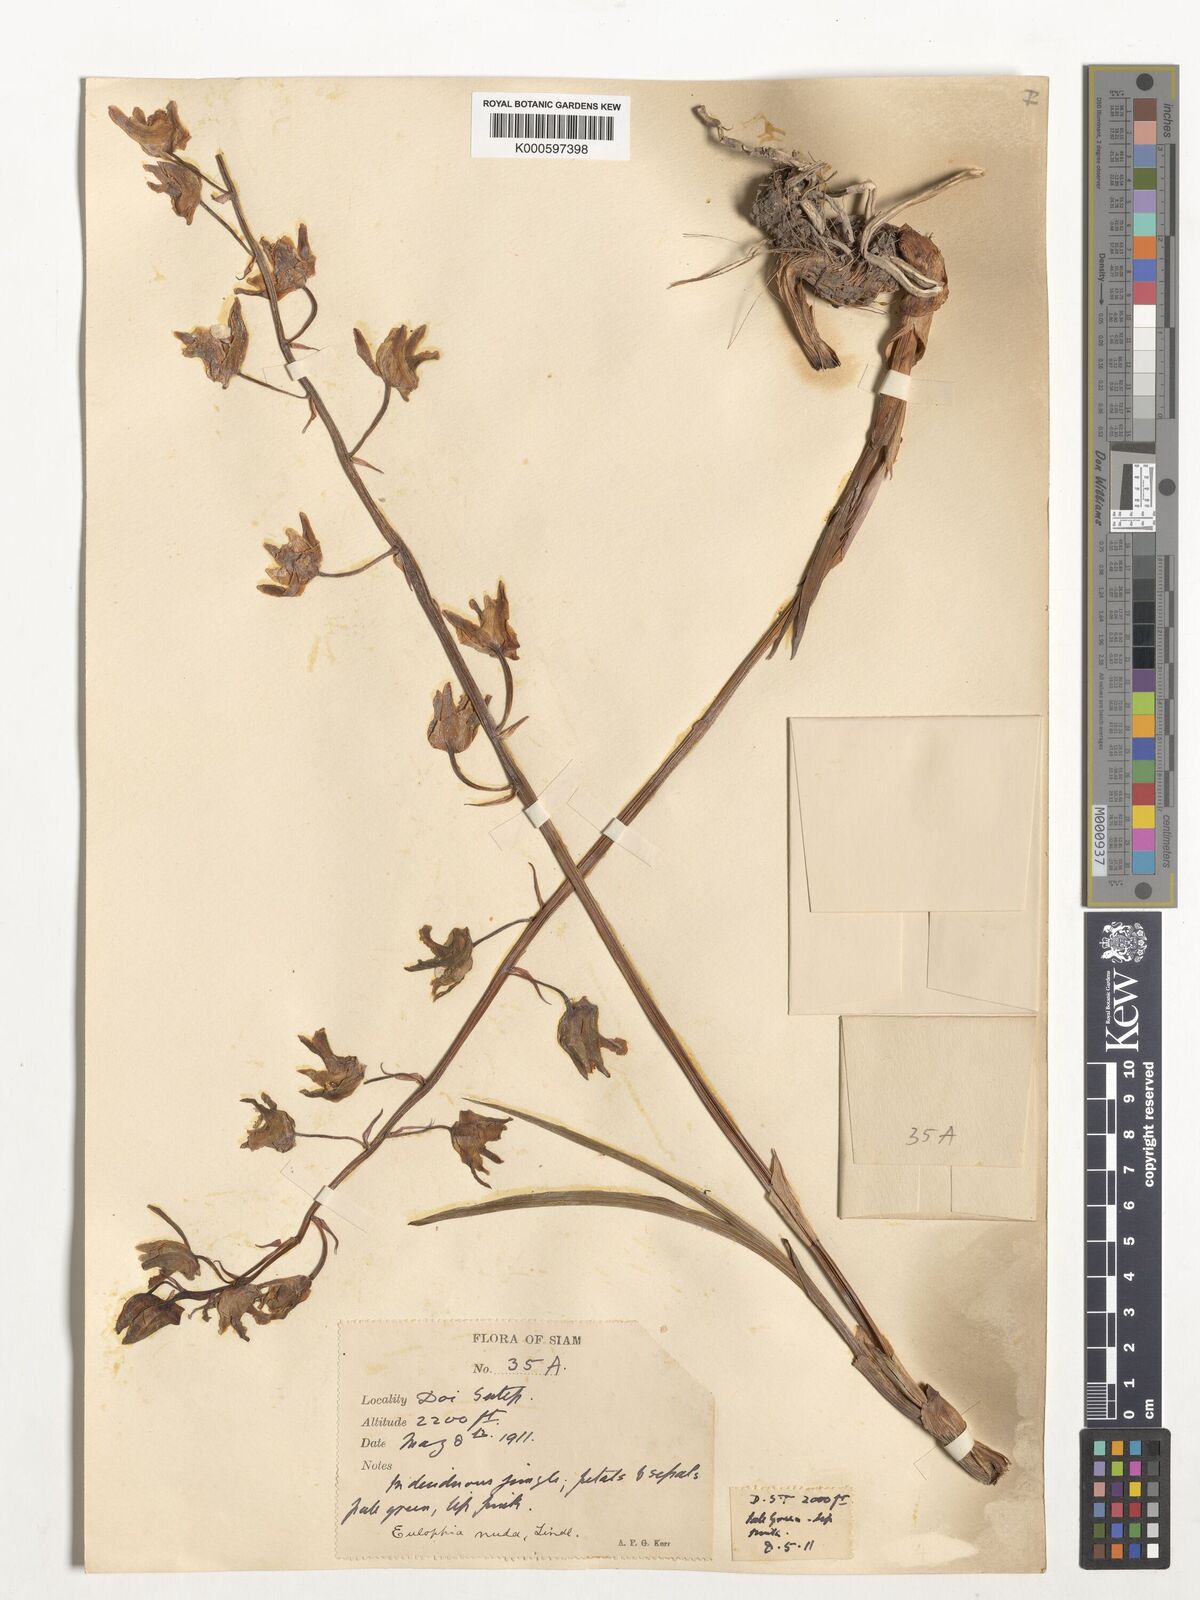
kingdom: Plantae
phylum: Tracheophyta
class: Liliopsida
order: Asparagales
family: Orchidaceae
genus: Eulophia
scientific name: Eulophia nuda
